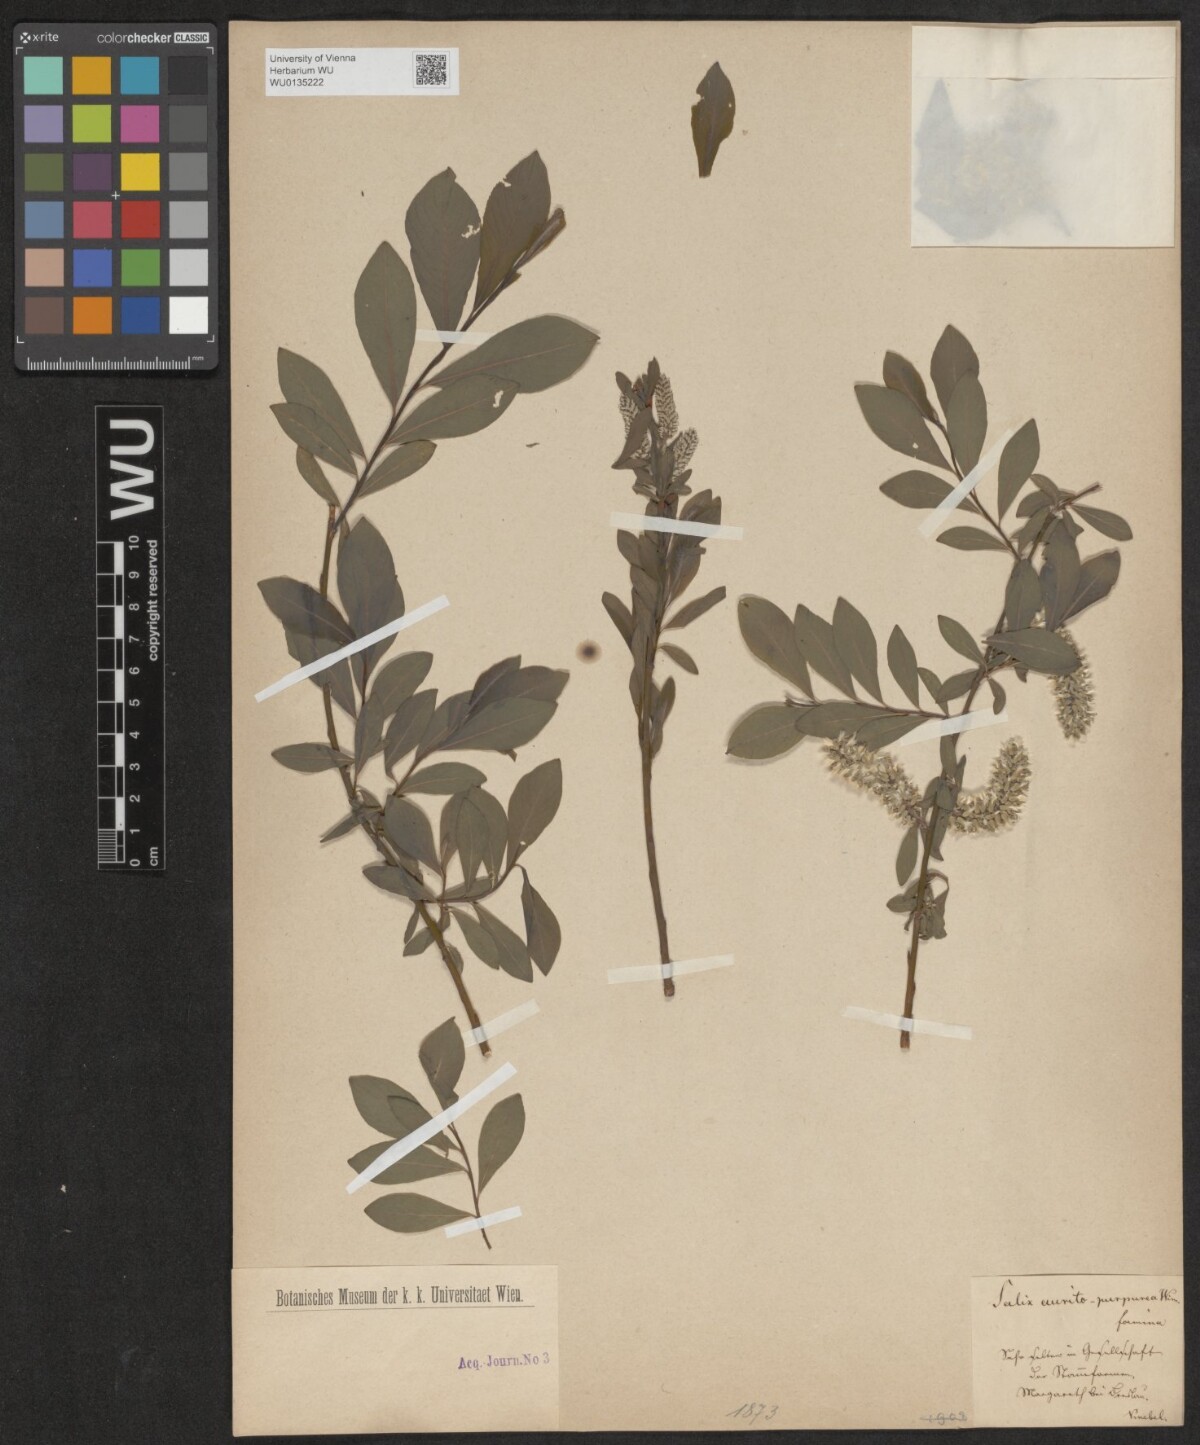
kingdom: Plantae
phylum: Tracheophyta
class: Magnoliopsida
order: Malpighiales
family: Salicaceae
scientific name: Salicaceae
